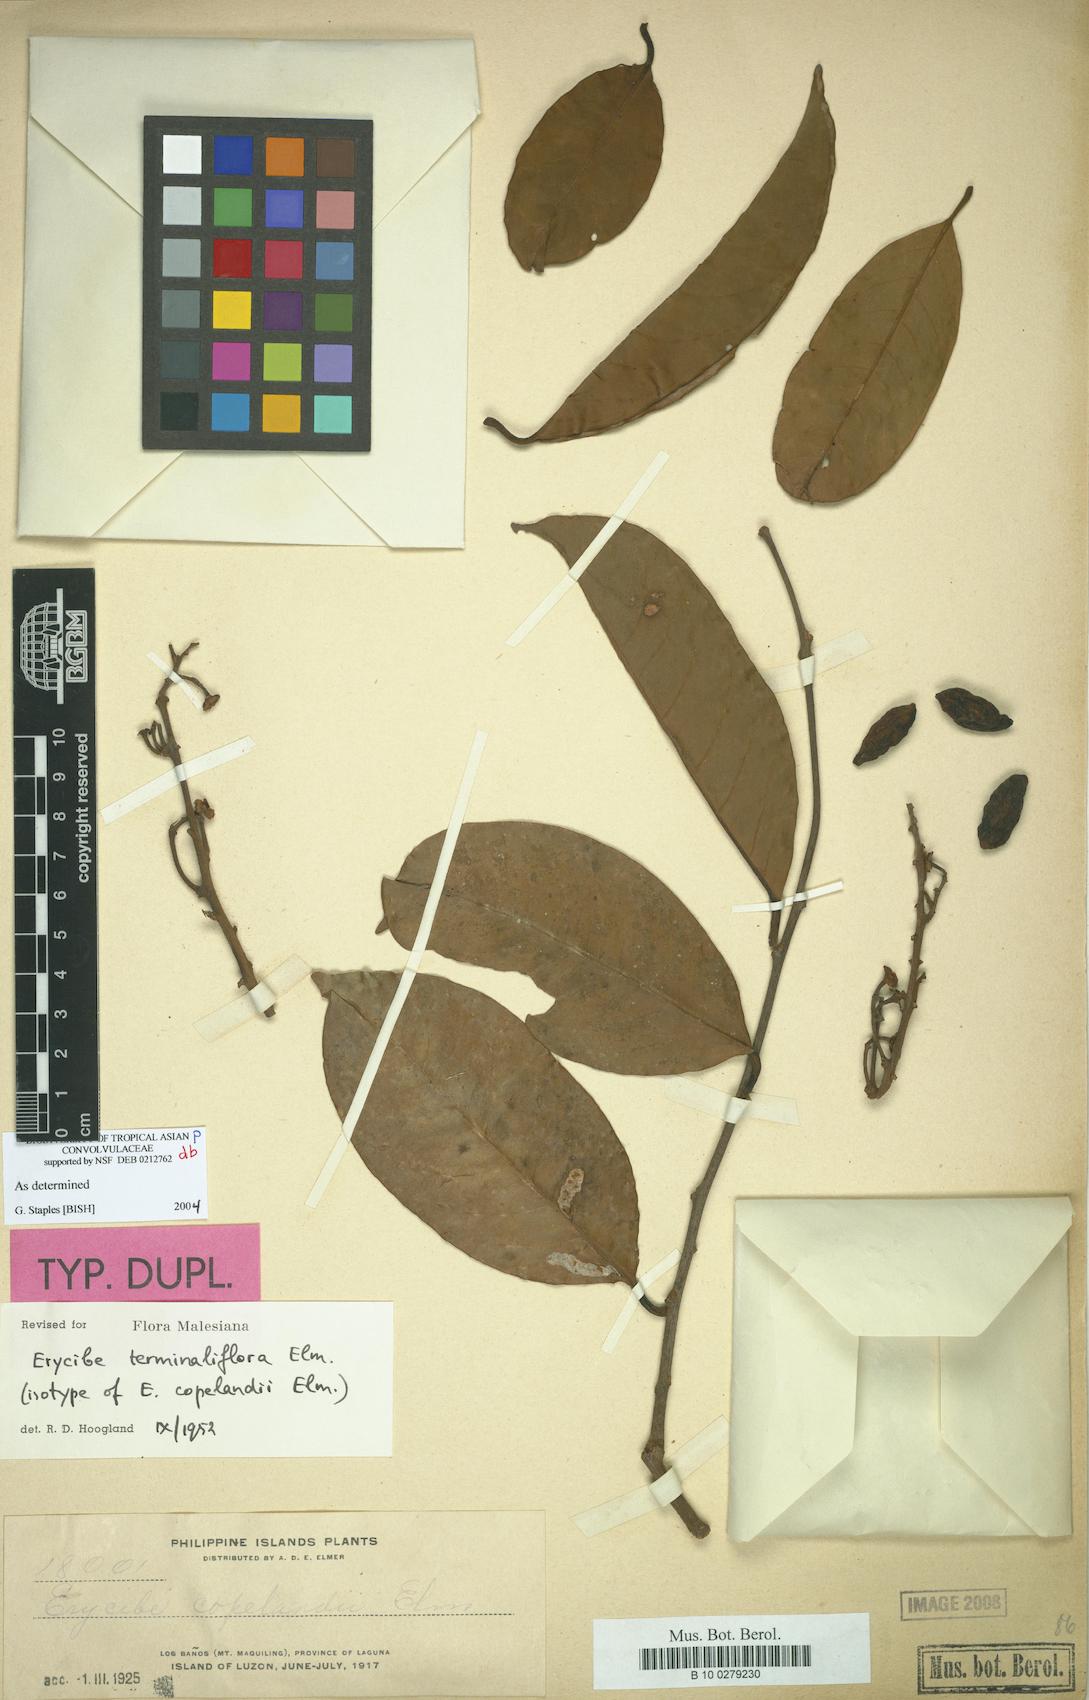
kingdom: Plantae
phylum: Tracheophyta
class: Magnoliopsida
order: Solanales
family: Convolvulaceae
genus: Erycibe
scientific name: Erycibe terminaliflora
